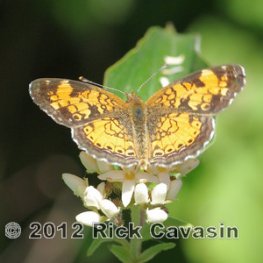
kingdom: Animalia
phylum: Arthropoda
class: Insecta
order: Lepidoptera
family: Nymphalidae
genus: Phyciodes
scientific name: Phyciodes tharos
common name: Northern Crescent
